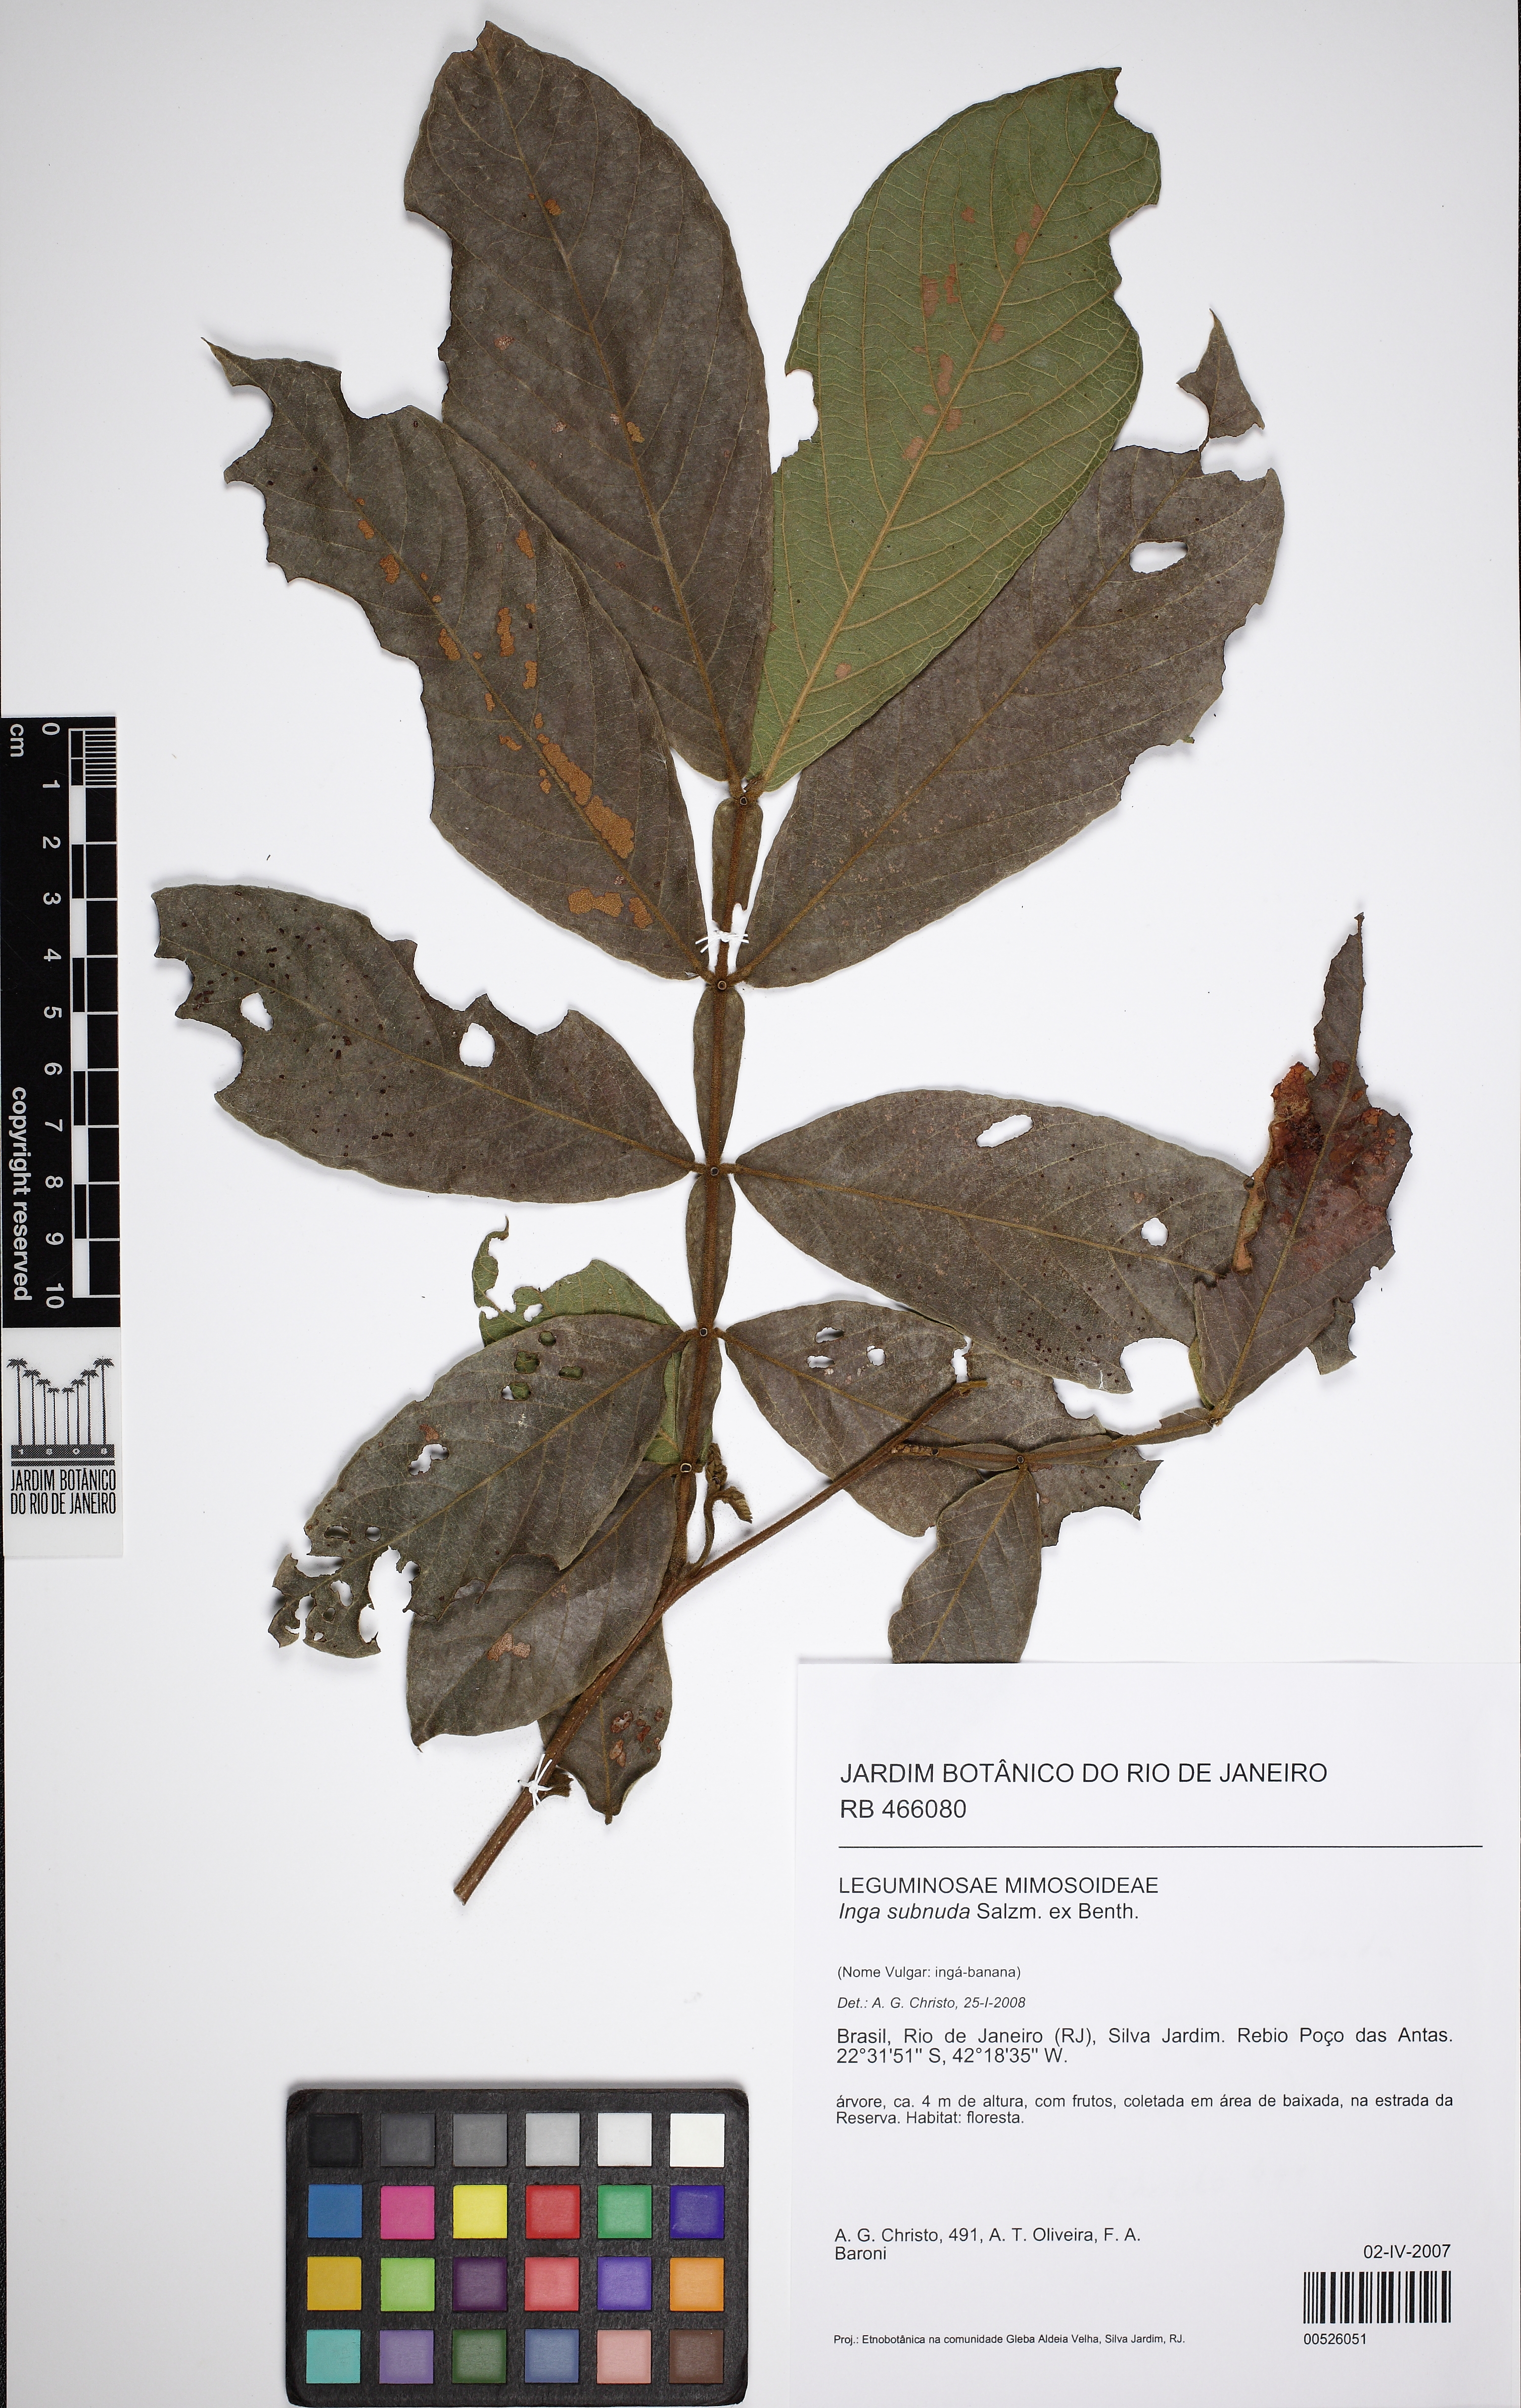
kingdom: Plantae
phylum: Tracheophyta
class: Magnoliopsida
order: Fabales
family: Fabaceae
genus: Inga
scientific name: Inga affinis
